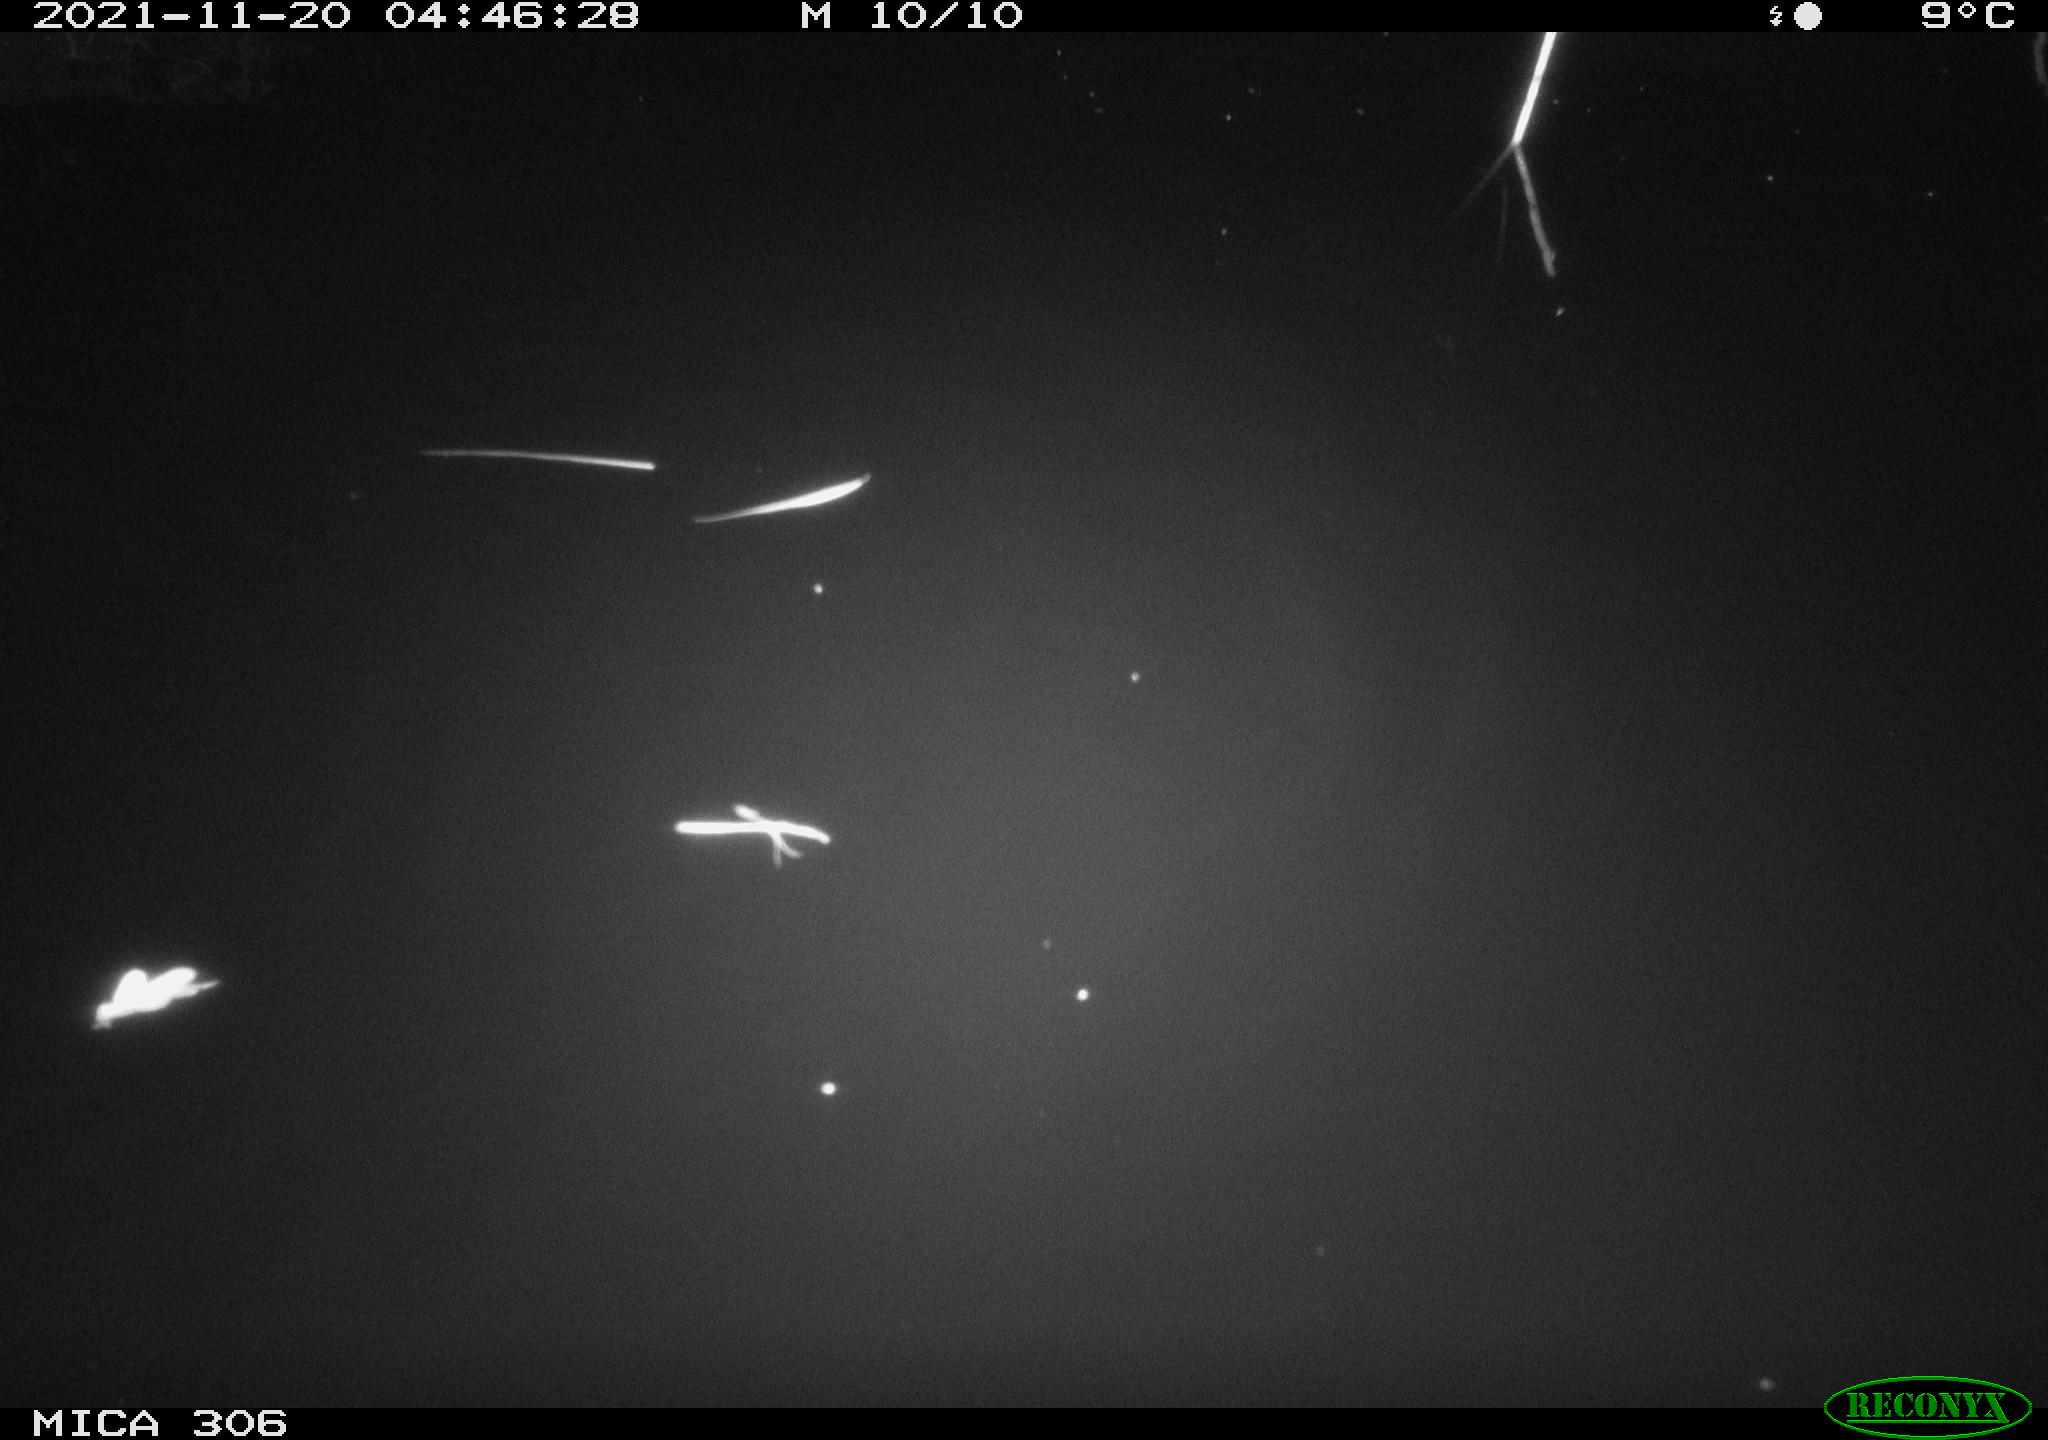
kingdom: Animalia
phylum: Chordata
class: Aves
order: Anseriformes
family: Anatidae
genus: Anas
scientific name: Anas platyrhynchos
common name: Mallard
